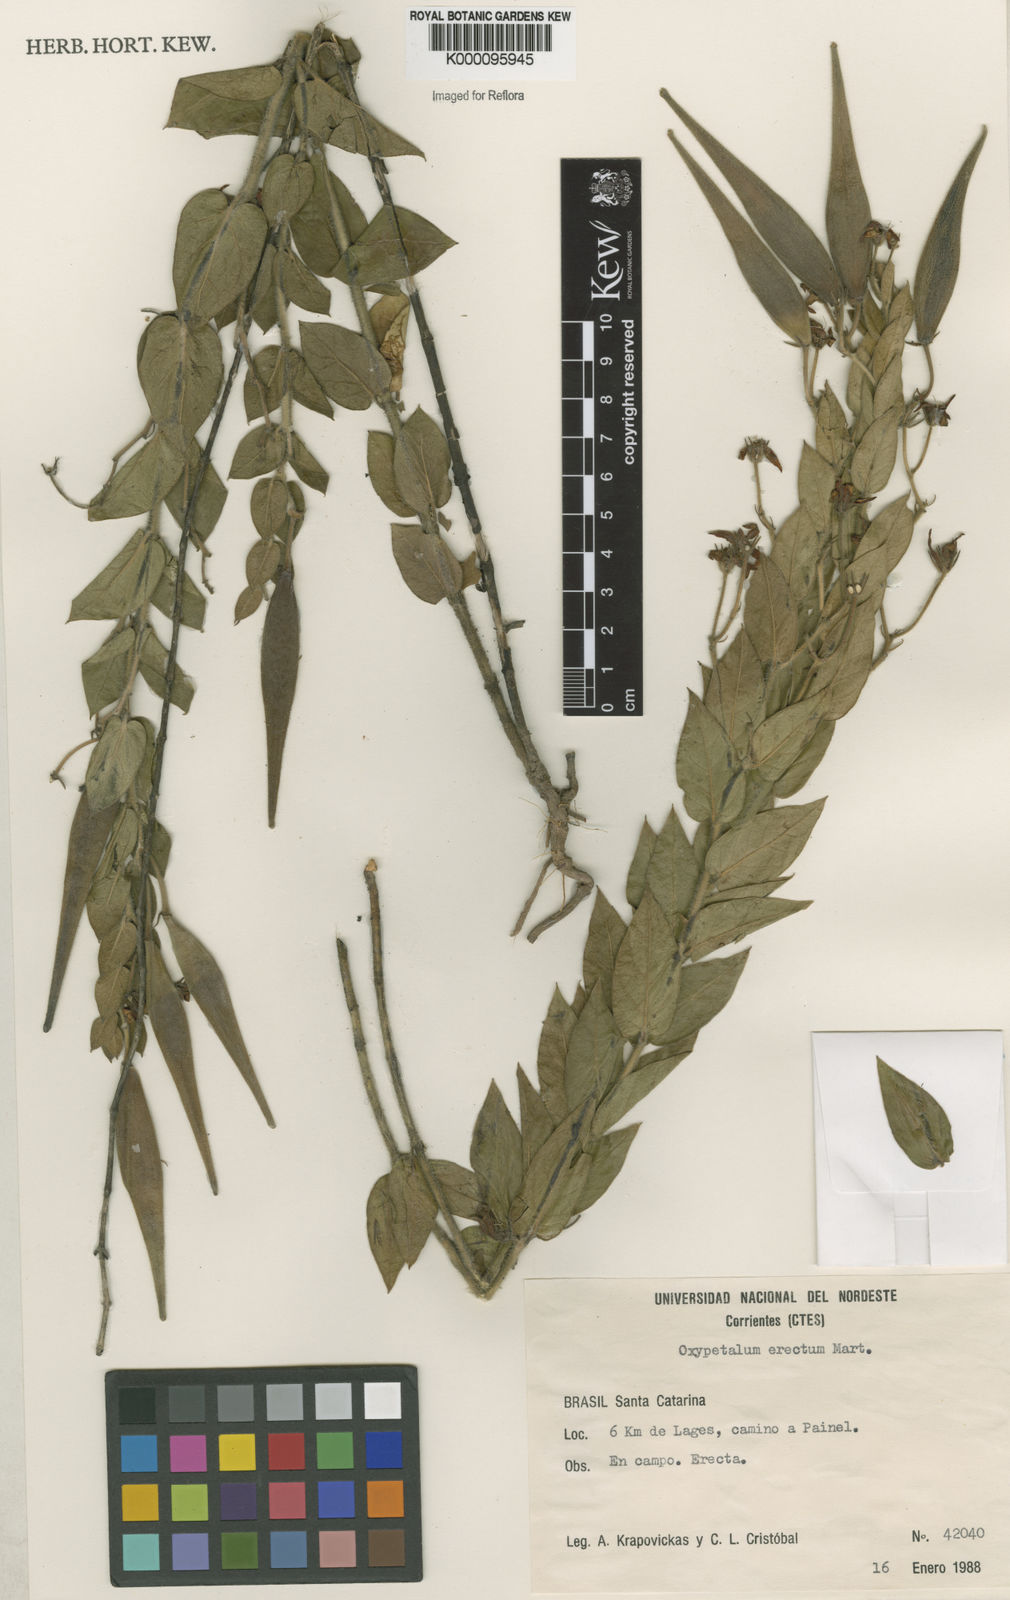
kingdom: Plantae
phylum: Tracheophyta
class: Magnoliopsida
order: Gentianales
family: Apocynaceae
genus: Oxypetalum
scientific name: Oxypetalum erectum
